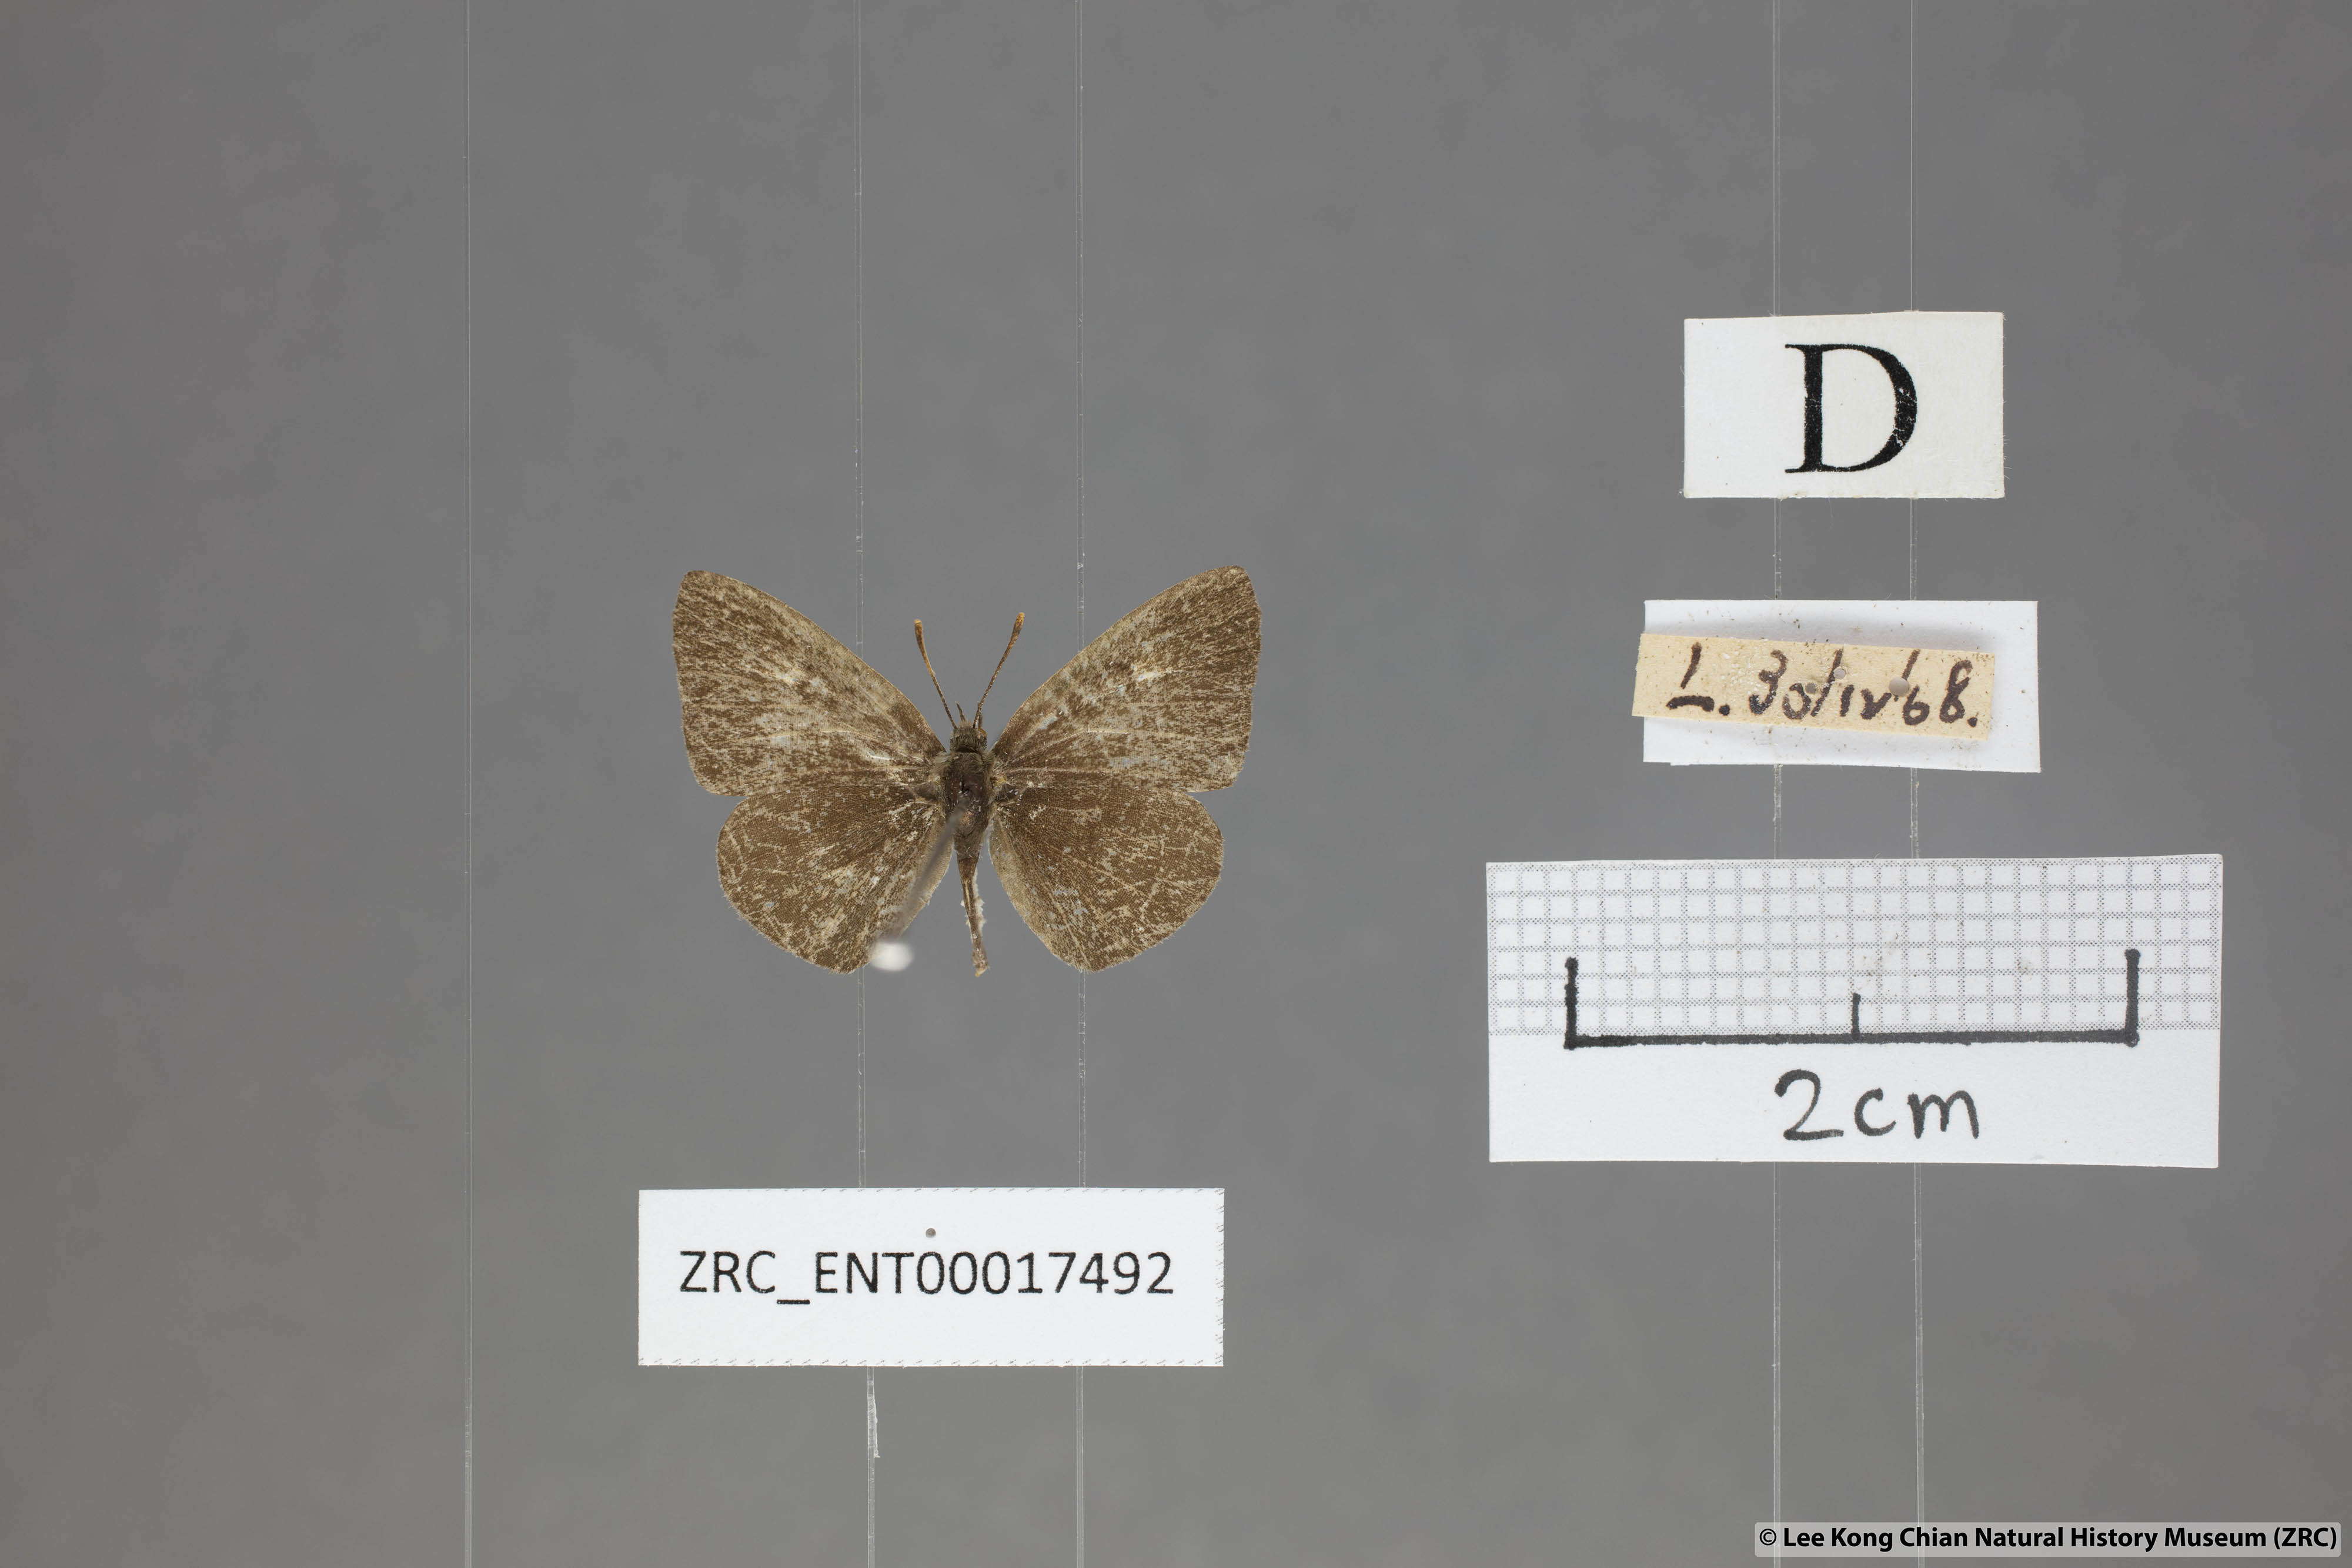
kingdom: Animalia
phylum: Arthropoda
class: Insecta
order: Lepidoptera
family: Lycaenidae
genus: Spalgis
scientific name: Spalgis epeus
